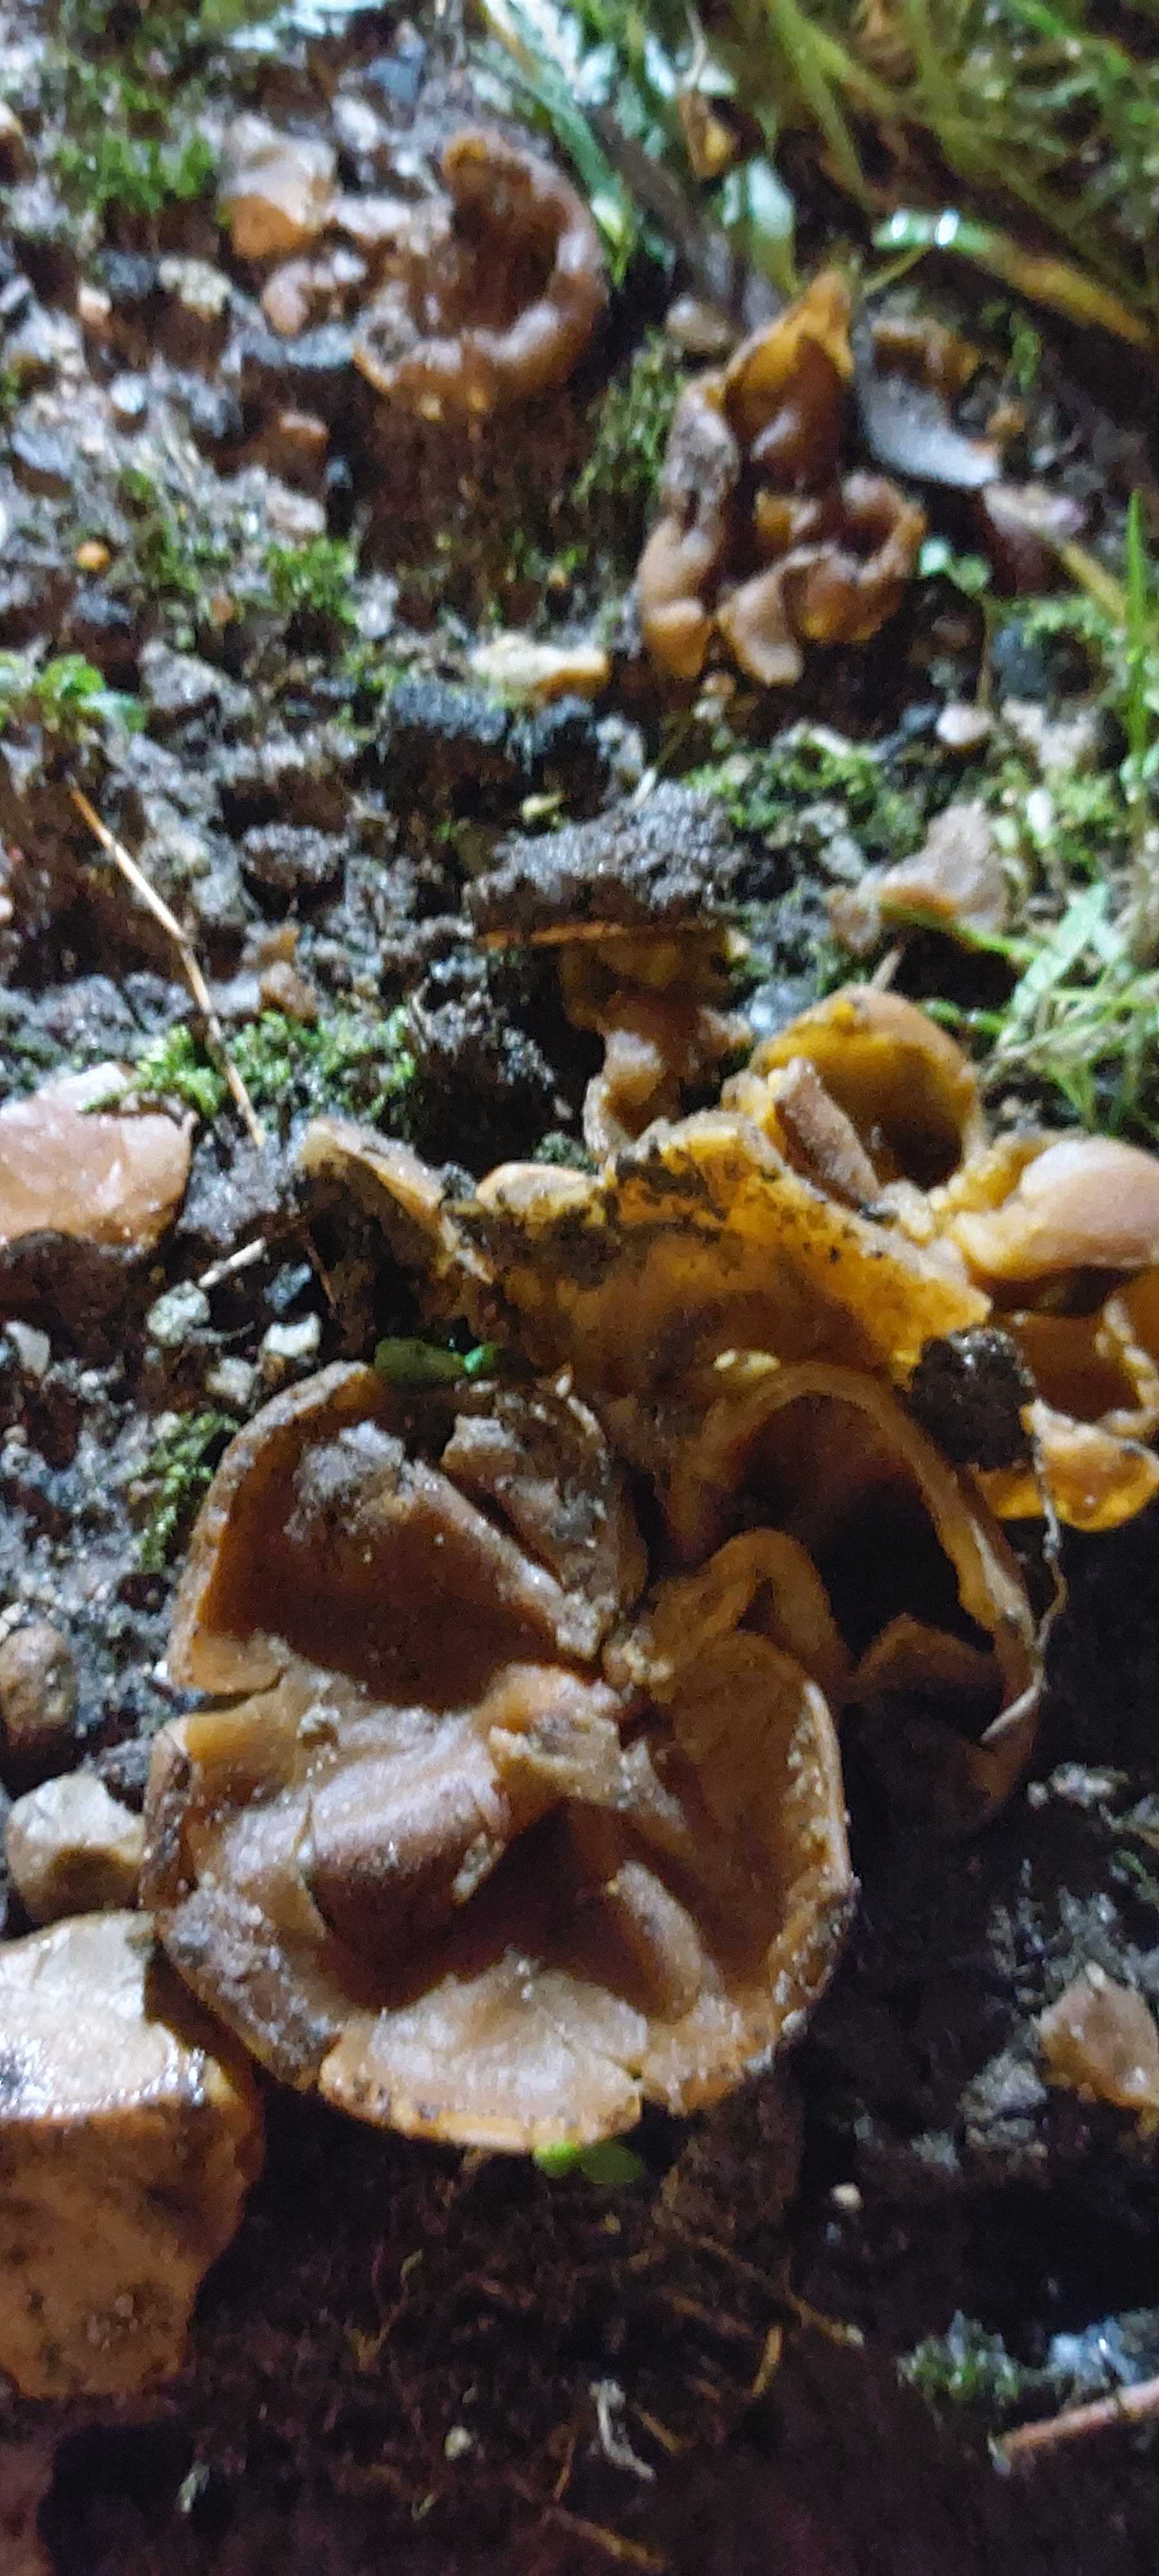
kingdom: Fungi
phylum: Ascomycota
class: Pezizomycetes
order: Pezizales
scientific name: Pezizales
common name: bægersvampordenen
